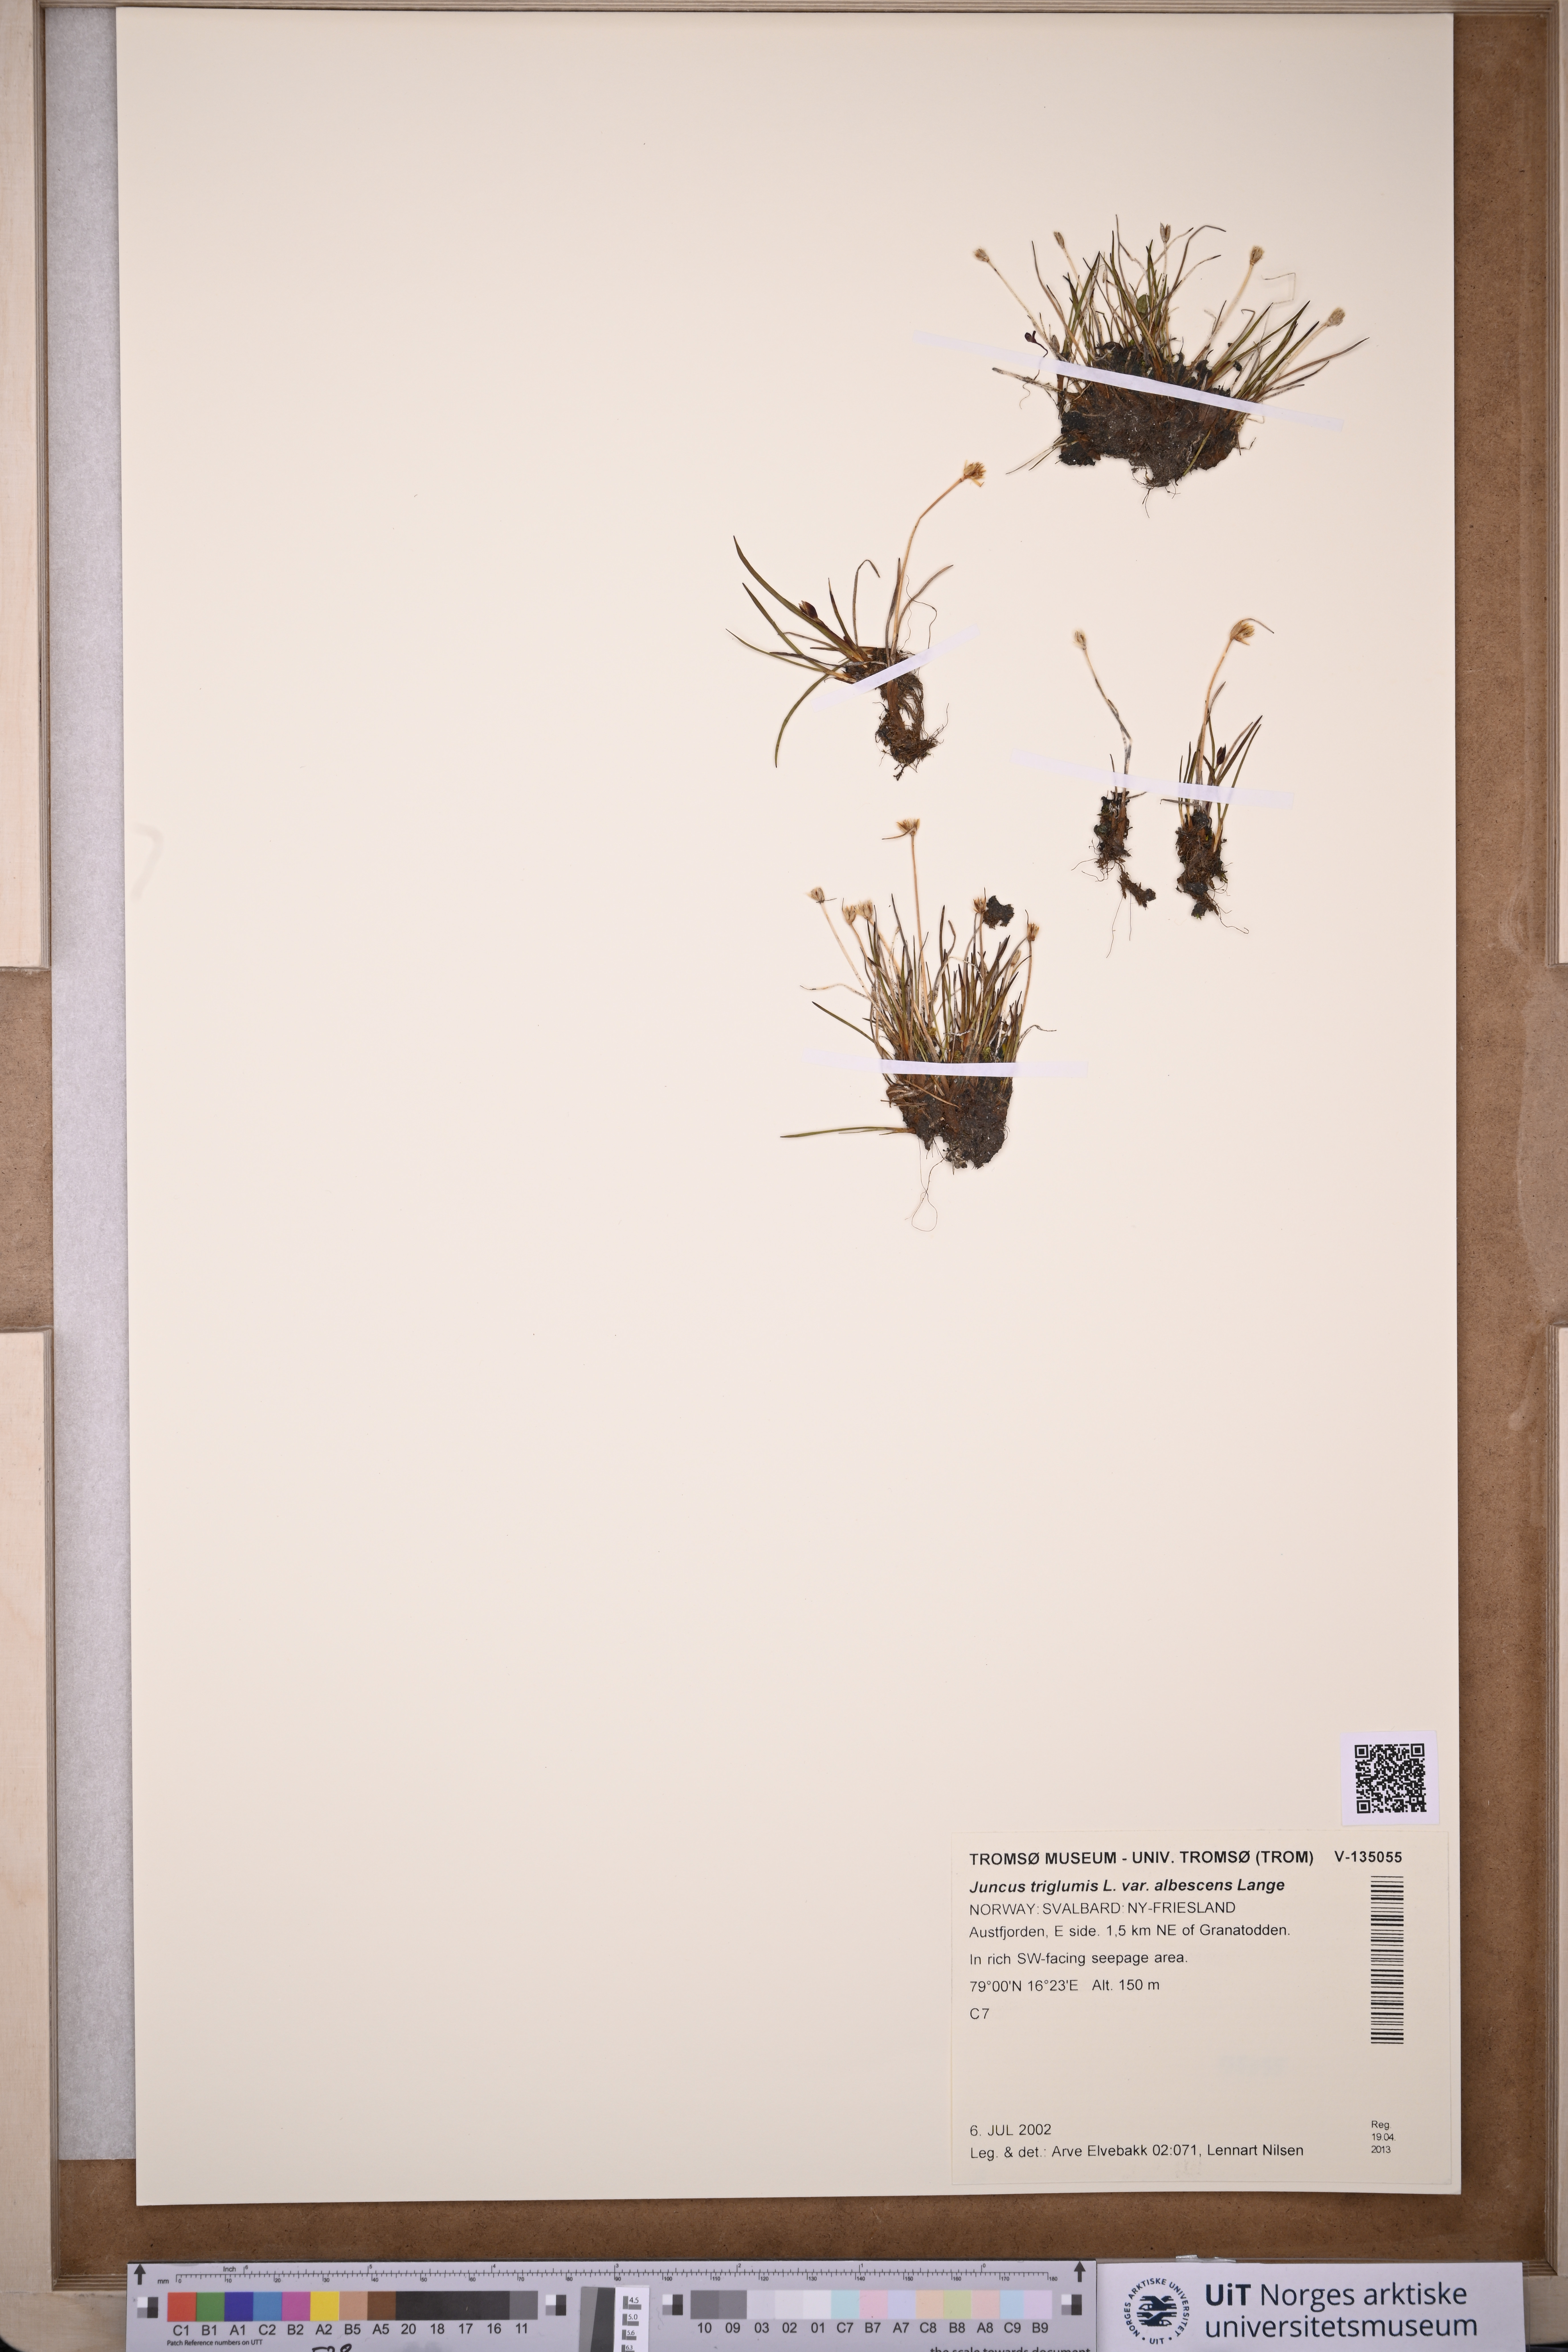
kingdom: Plantae
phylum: Tracheophyta
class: Liliopsida
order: Poales
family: Juncaceae
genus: Juncus
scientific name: Juncus albescens
